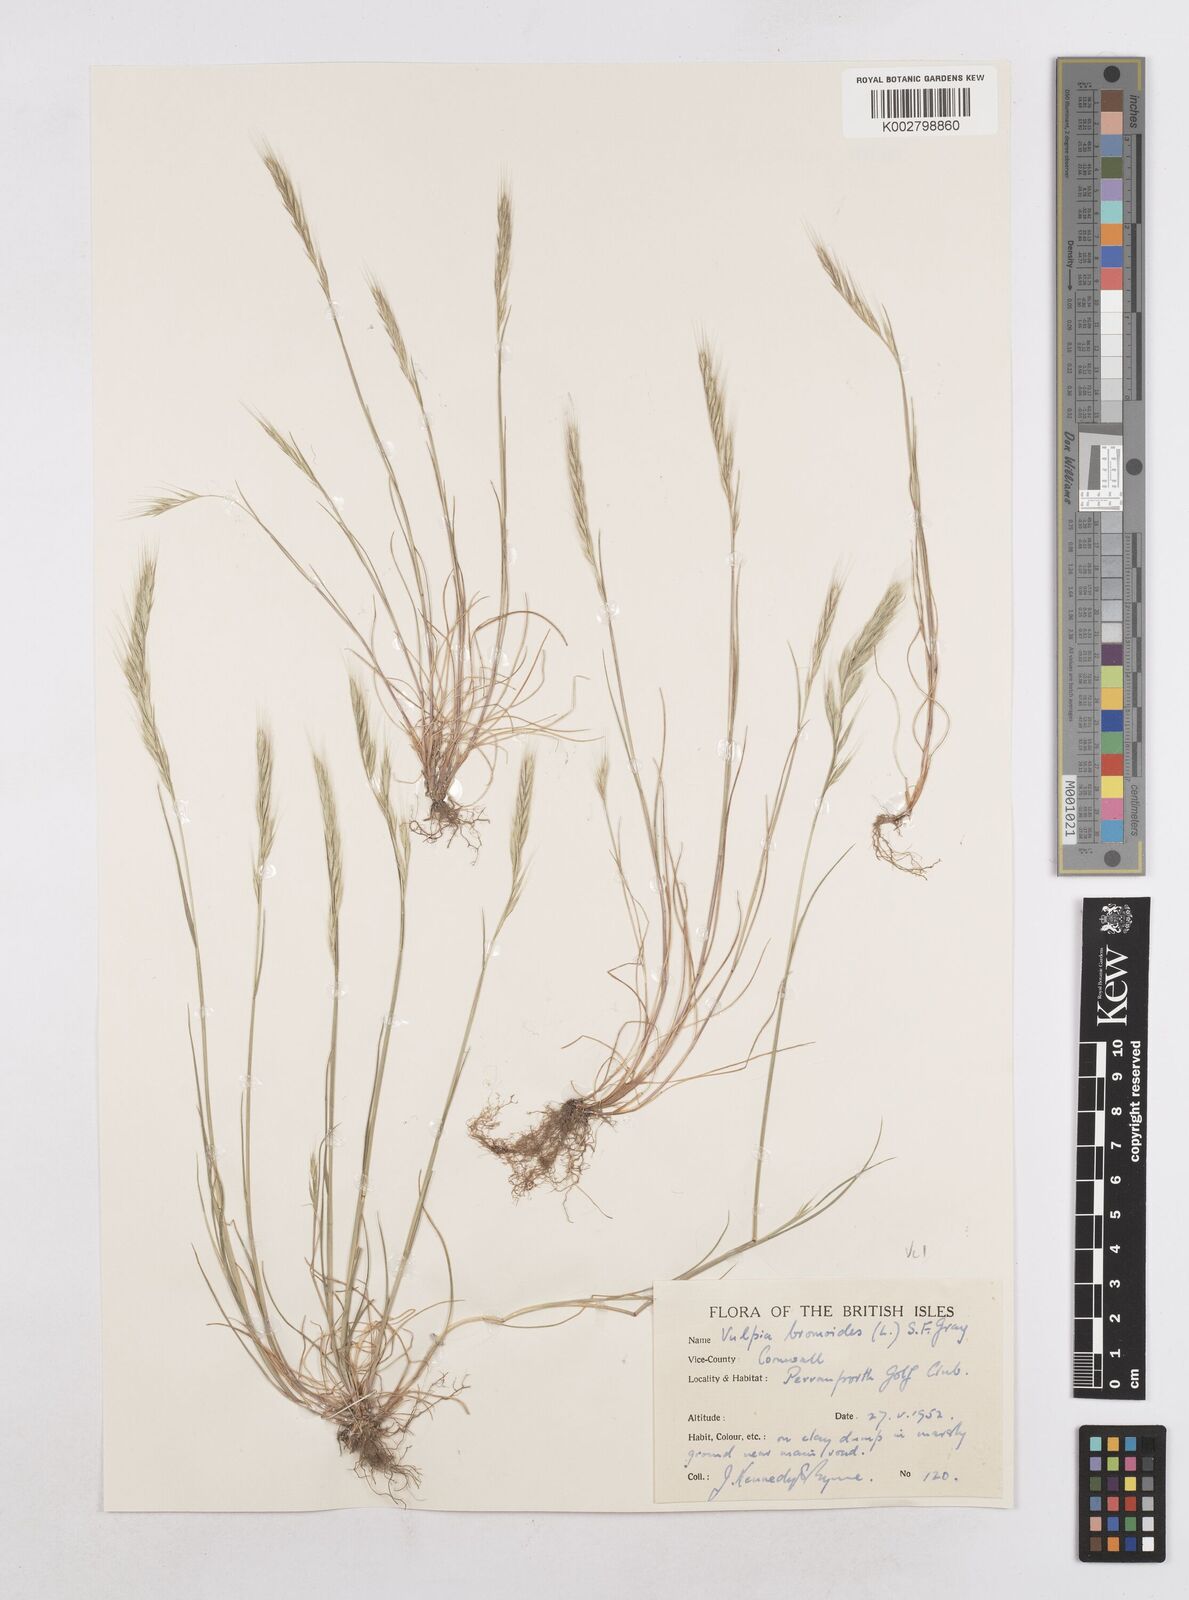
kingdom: Plantae
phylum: Tracheophyta
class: Liliopsida
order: Poales
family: Poaceae
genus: Festuca
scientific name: Festuca bromoides
